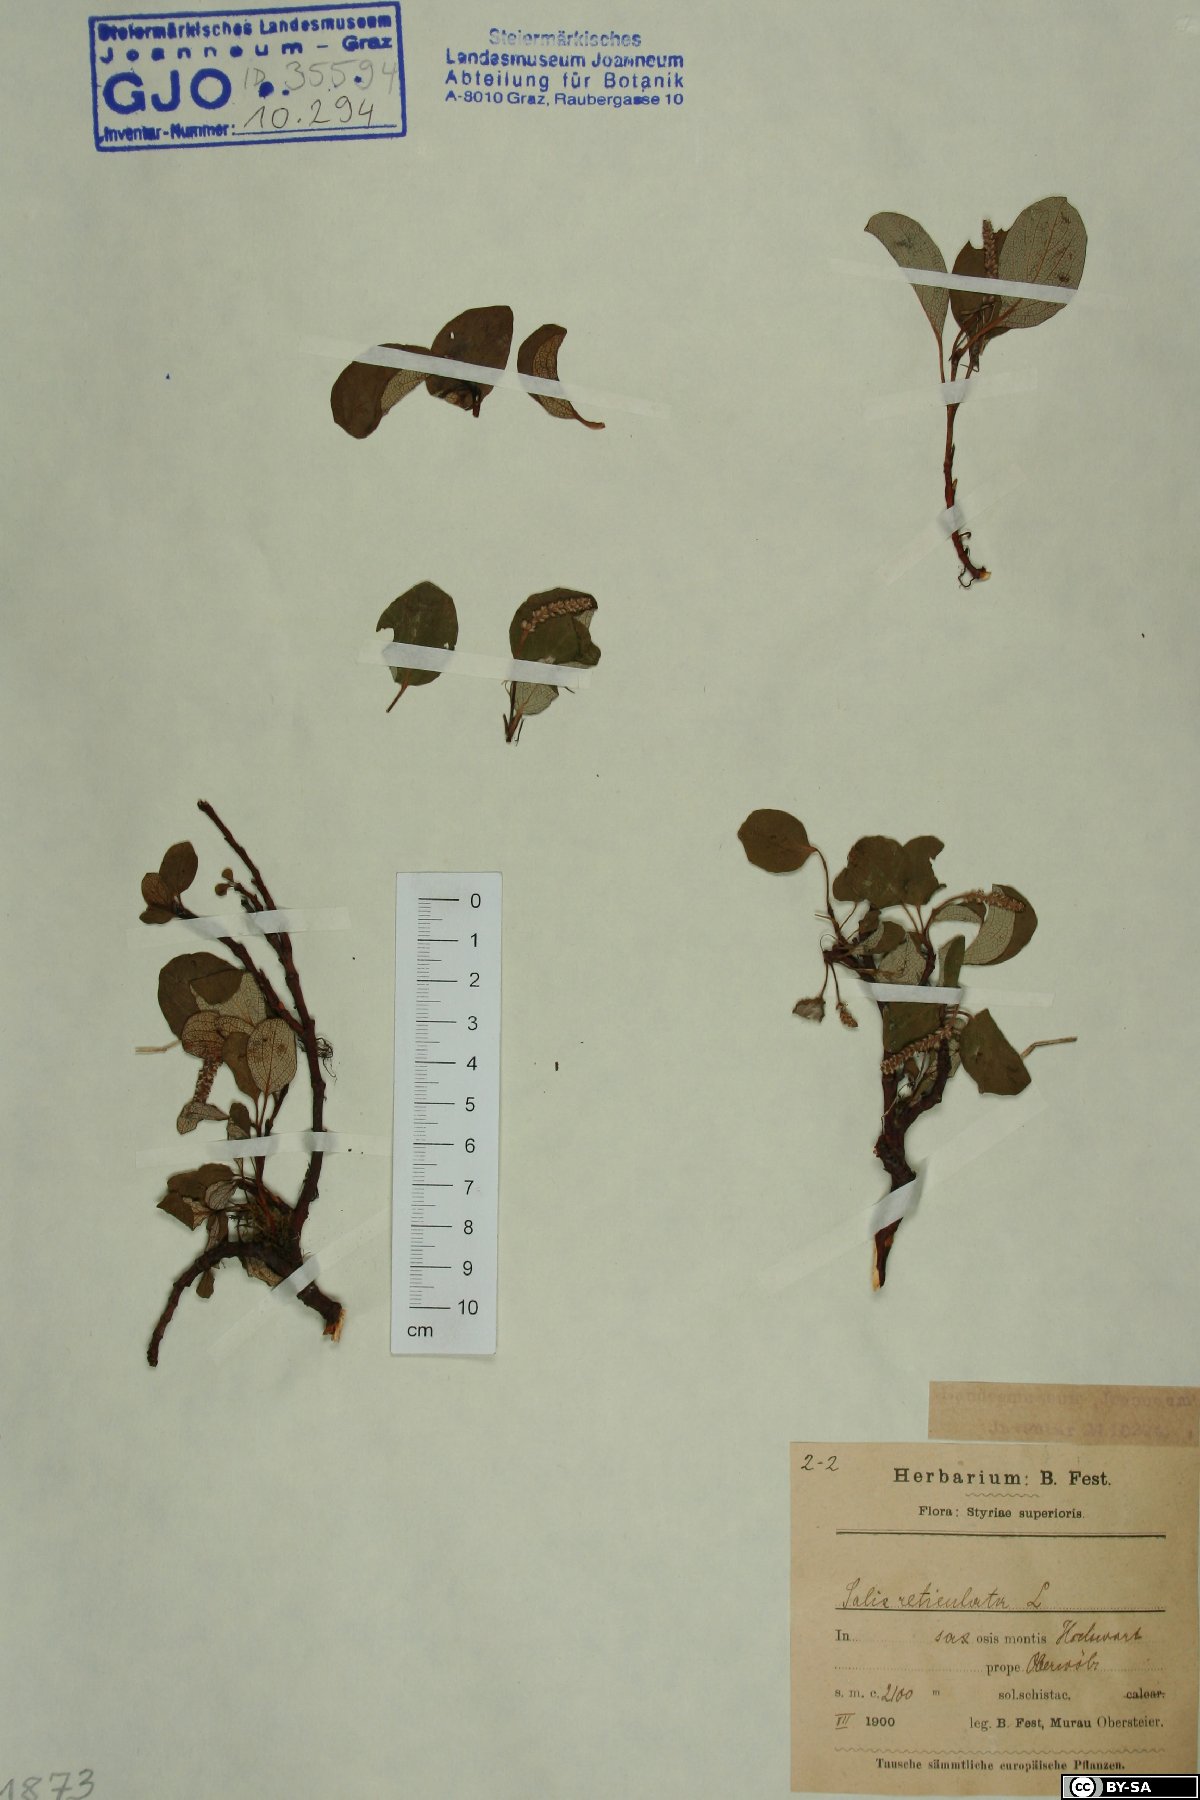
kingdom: Plantae
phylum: Tracheophyta
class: Magnoliopsida
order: Malpighiales
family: Salicaceae
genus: Salix
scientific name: Salix reticulata
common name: Net-leaved willow
